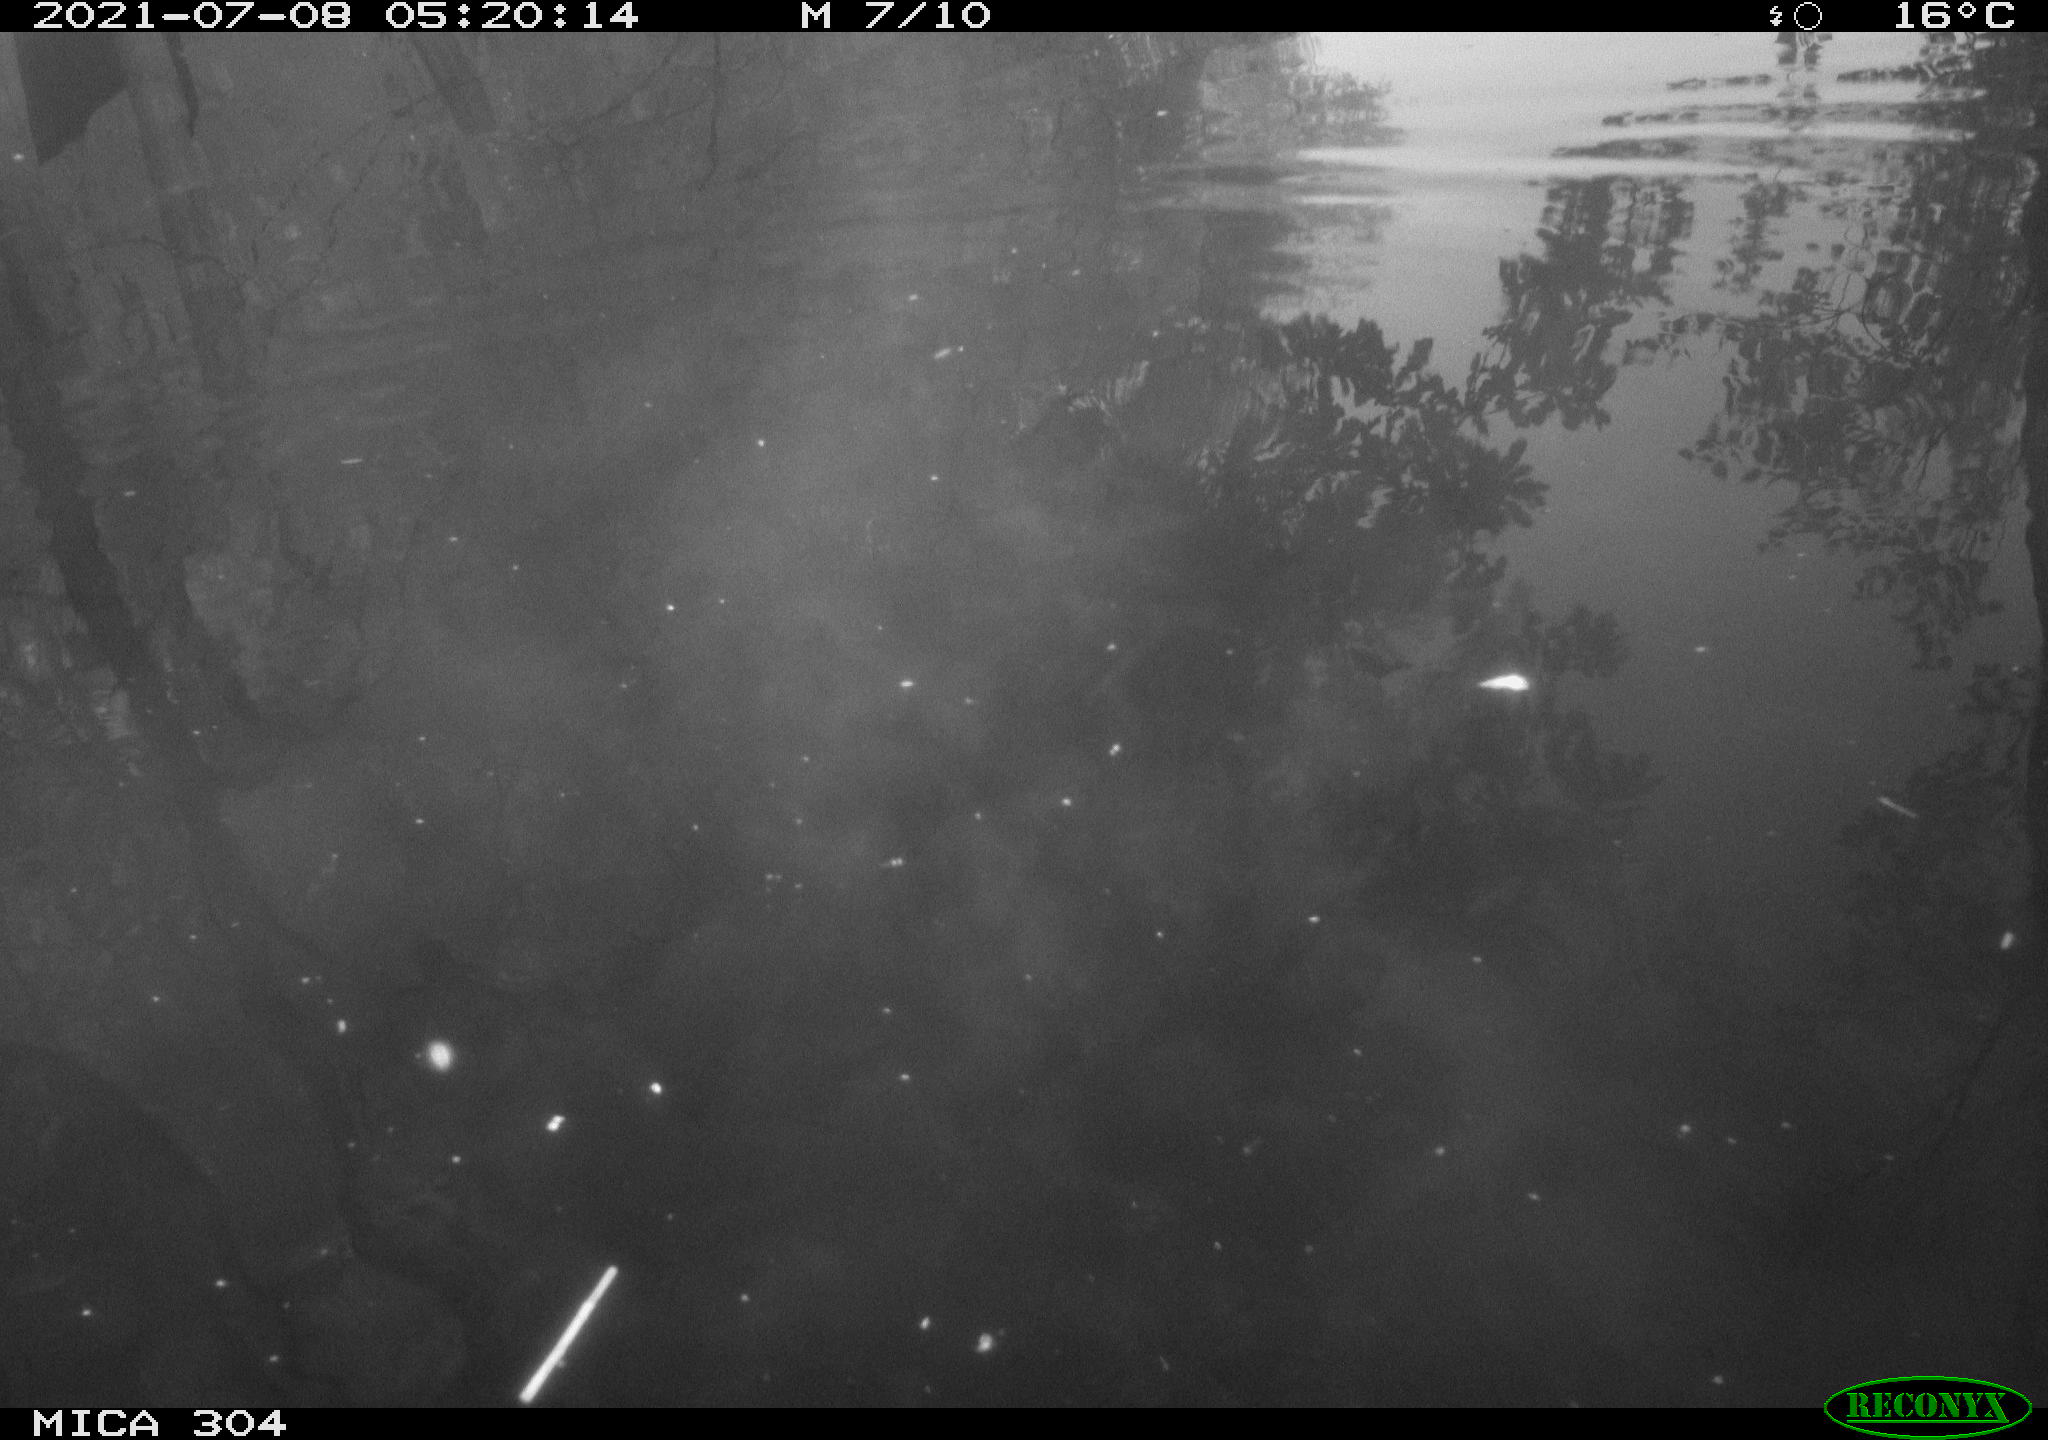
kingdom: Animalia
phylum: Chordata
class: Mammalia
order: Rodentia
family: Muridae
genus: Rattus
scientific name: Rattus norvegicus
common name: Brown rat
